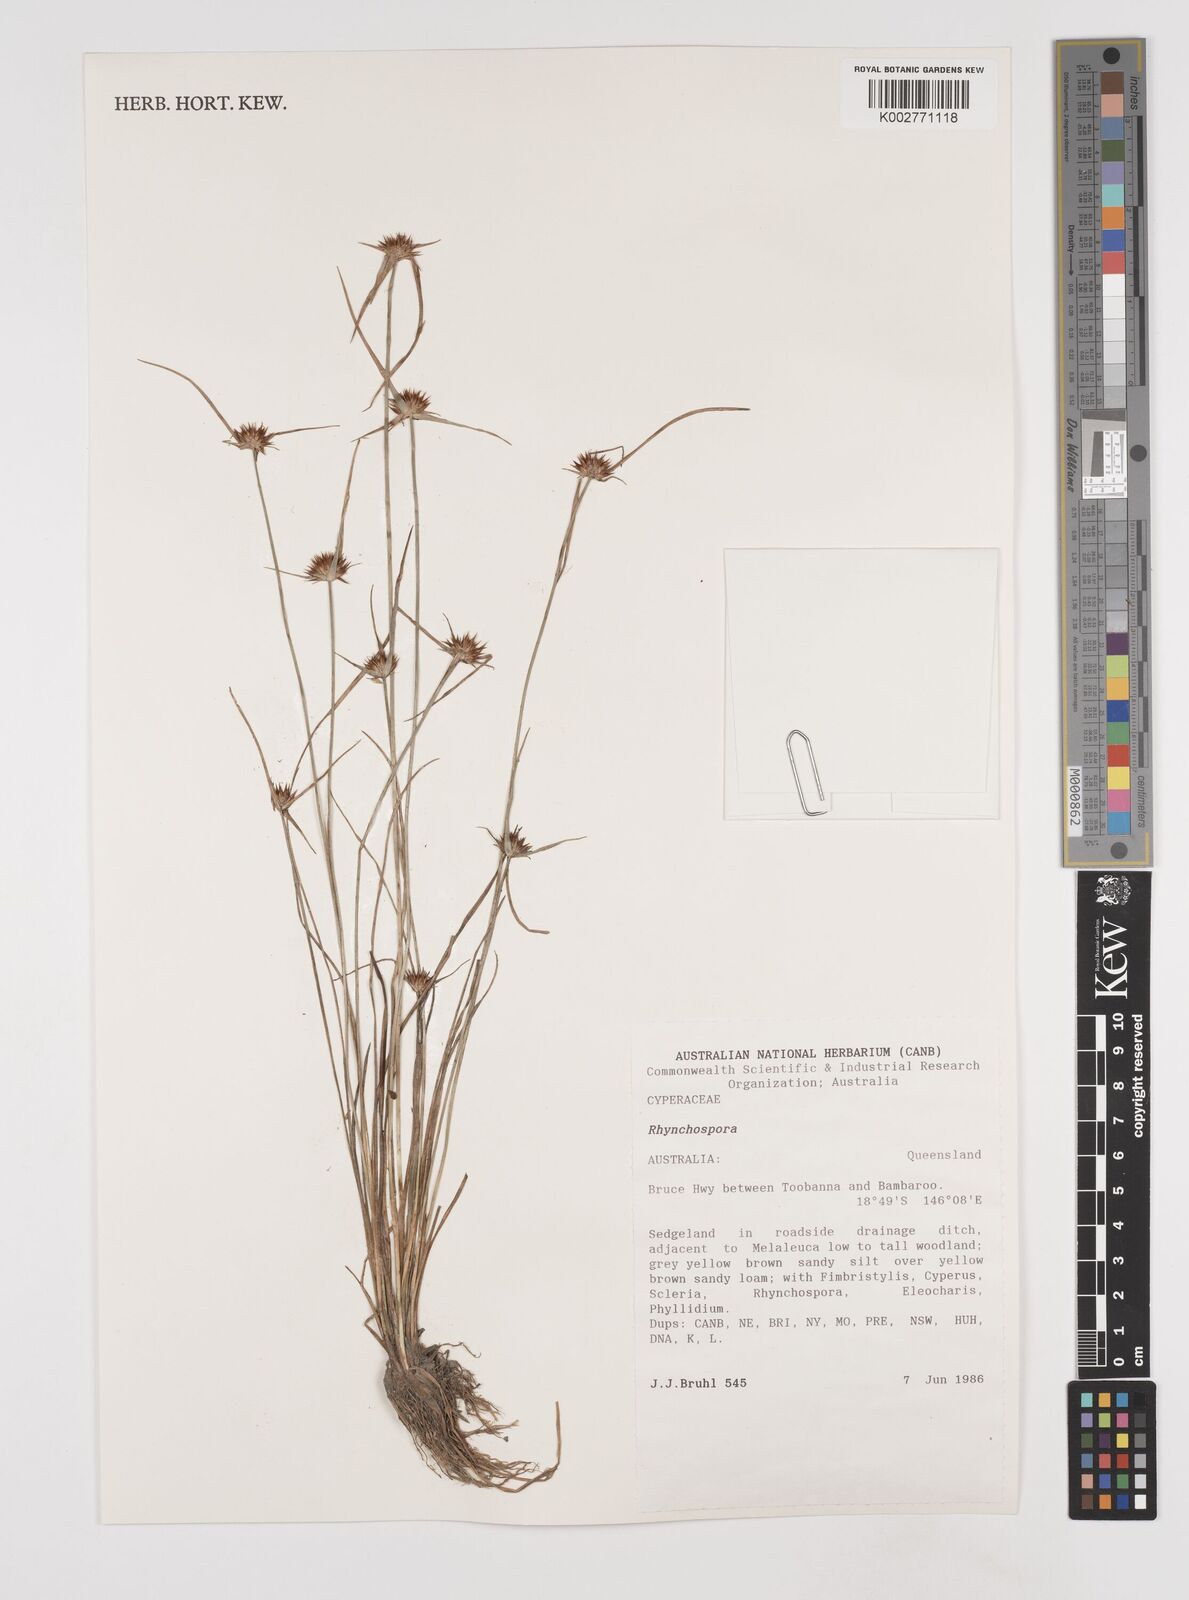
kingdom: Plantae
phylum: Tracheophyta
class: Liliopsida
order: Poales
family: Cyperaceae
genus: Rhynchospora
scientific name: Rhynchospora
